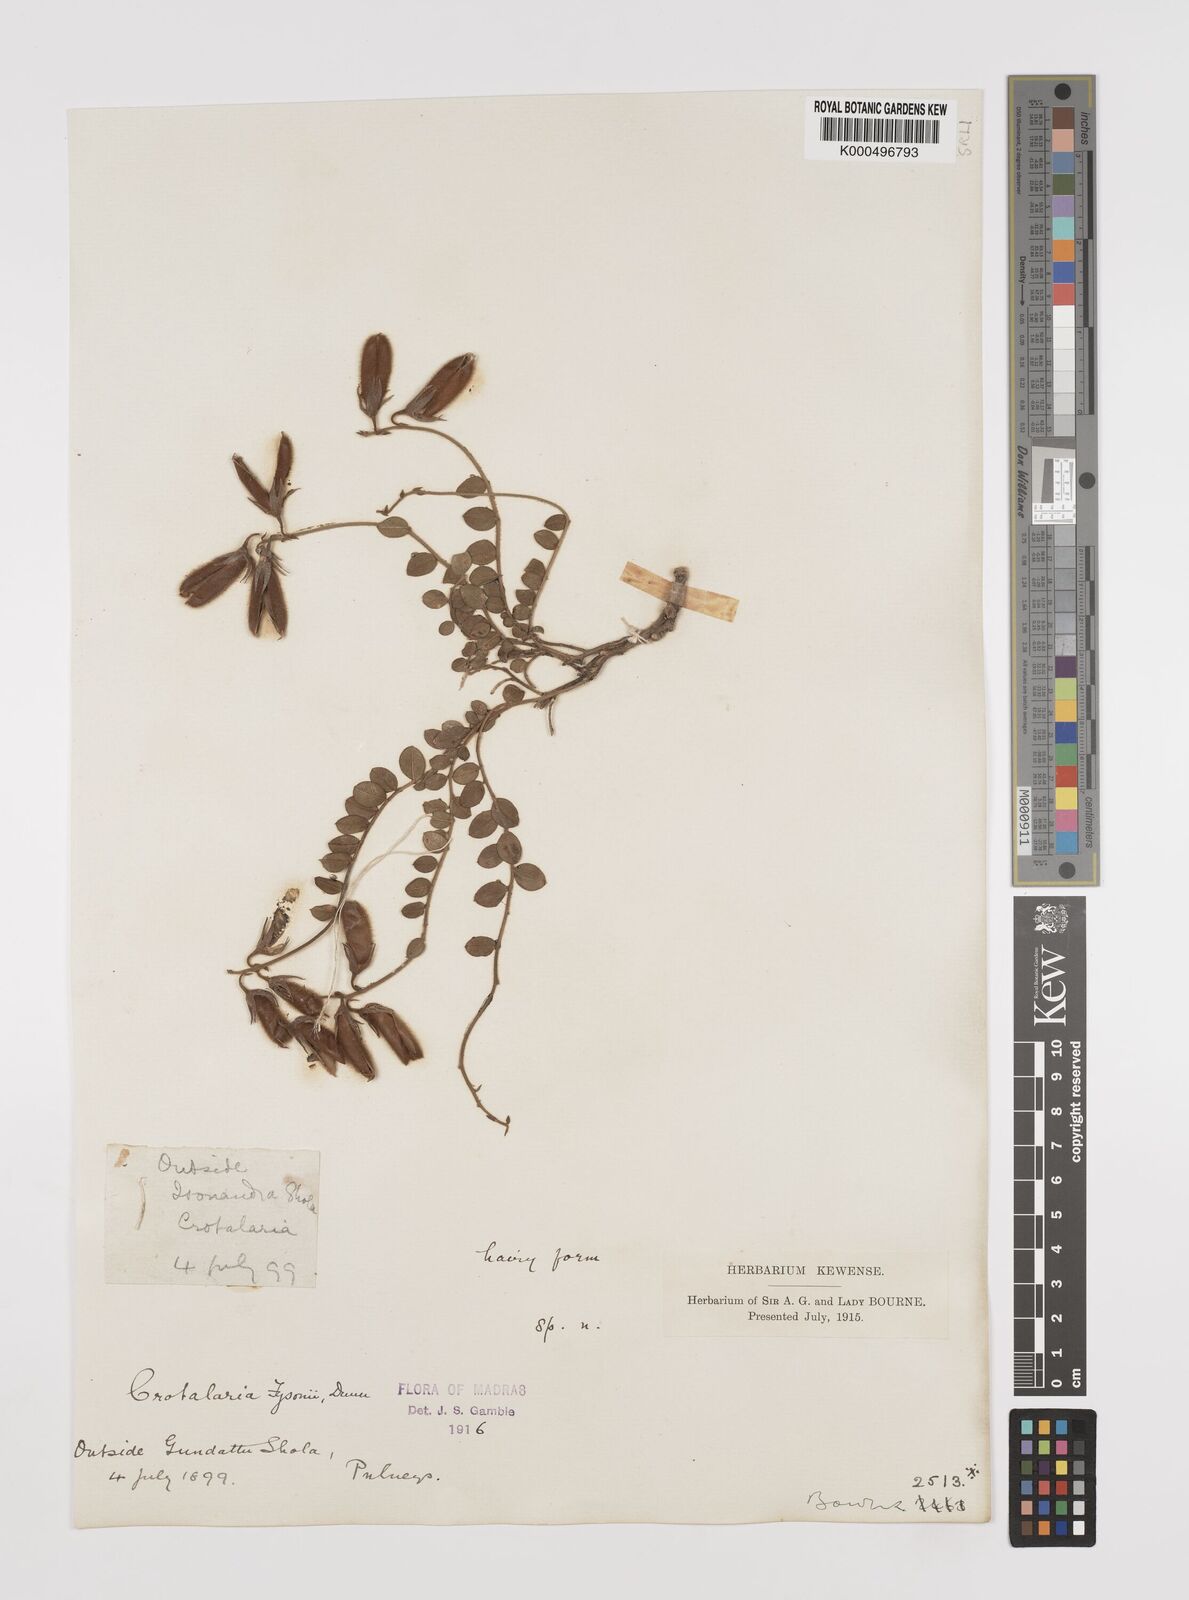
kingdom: Plantae
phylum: Tracheophyta
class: Magnoliopsida
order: Fabales
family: Fabaceae
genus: Crotalaria
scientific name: Crotalaria fysonii
